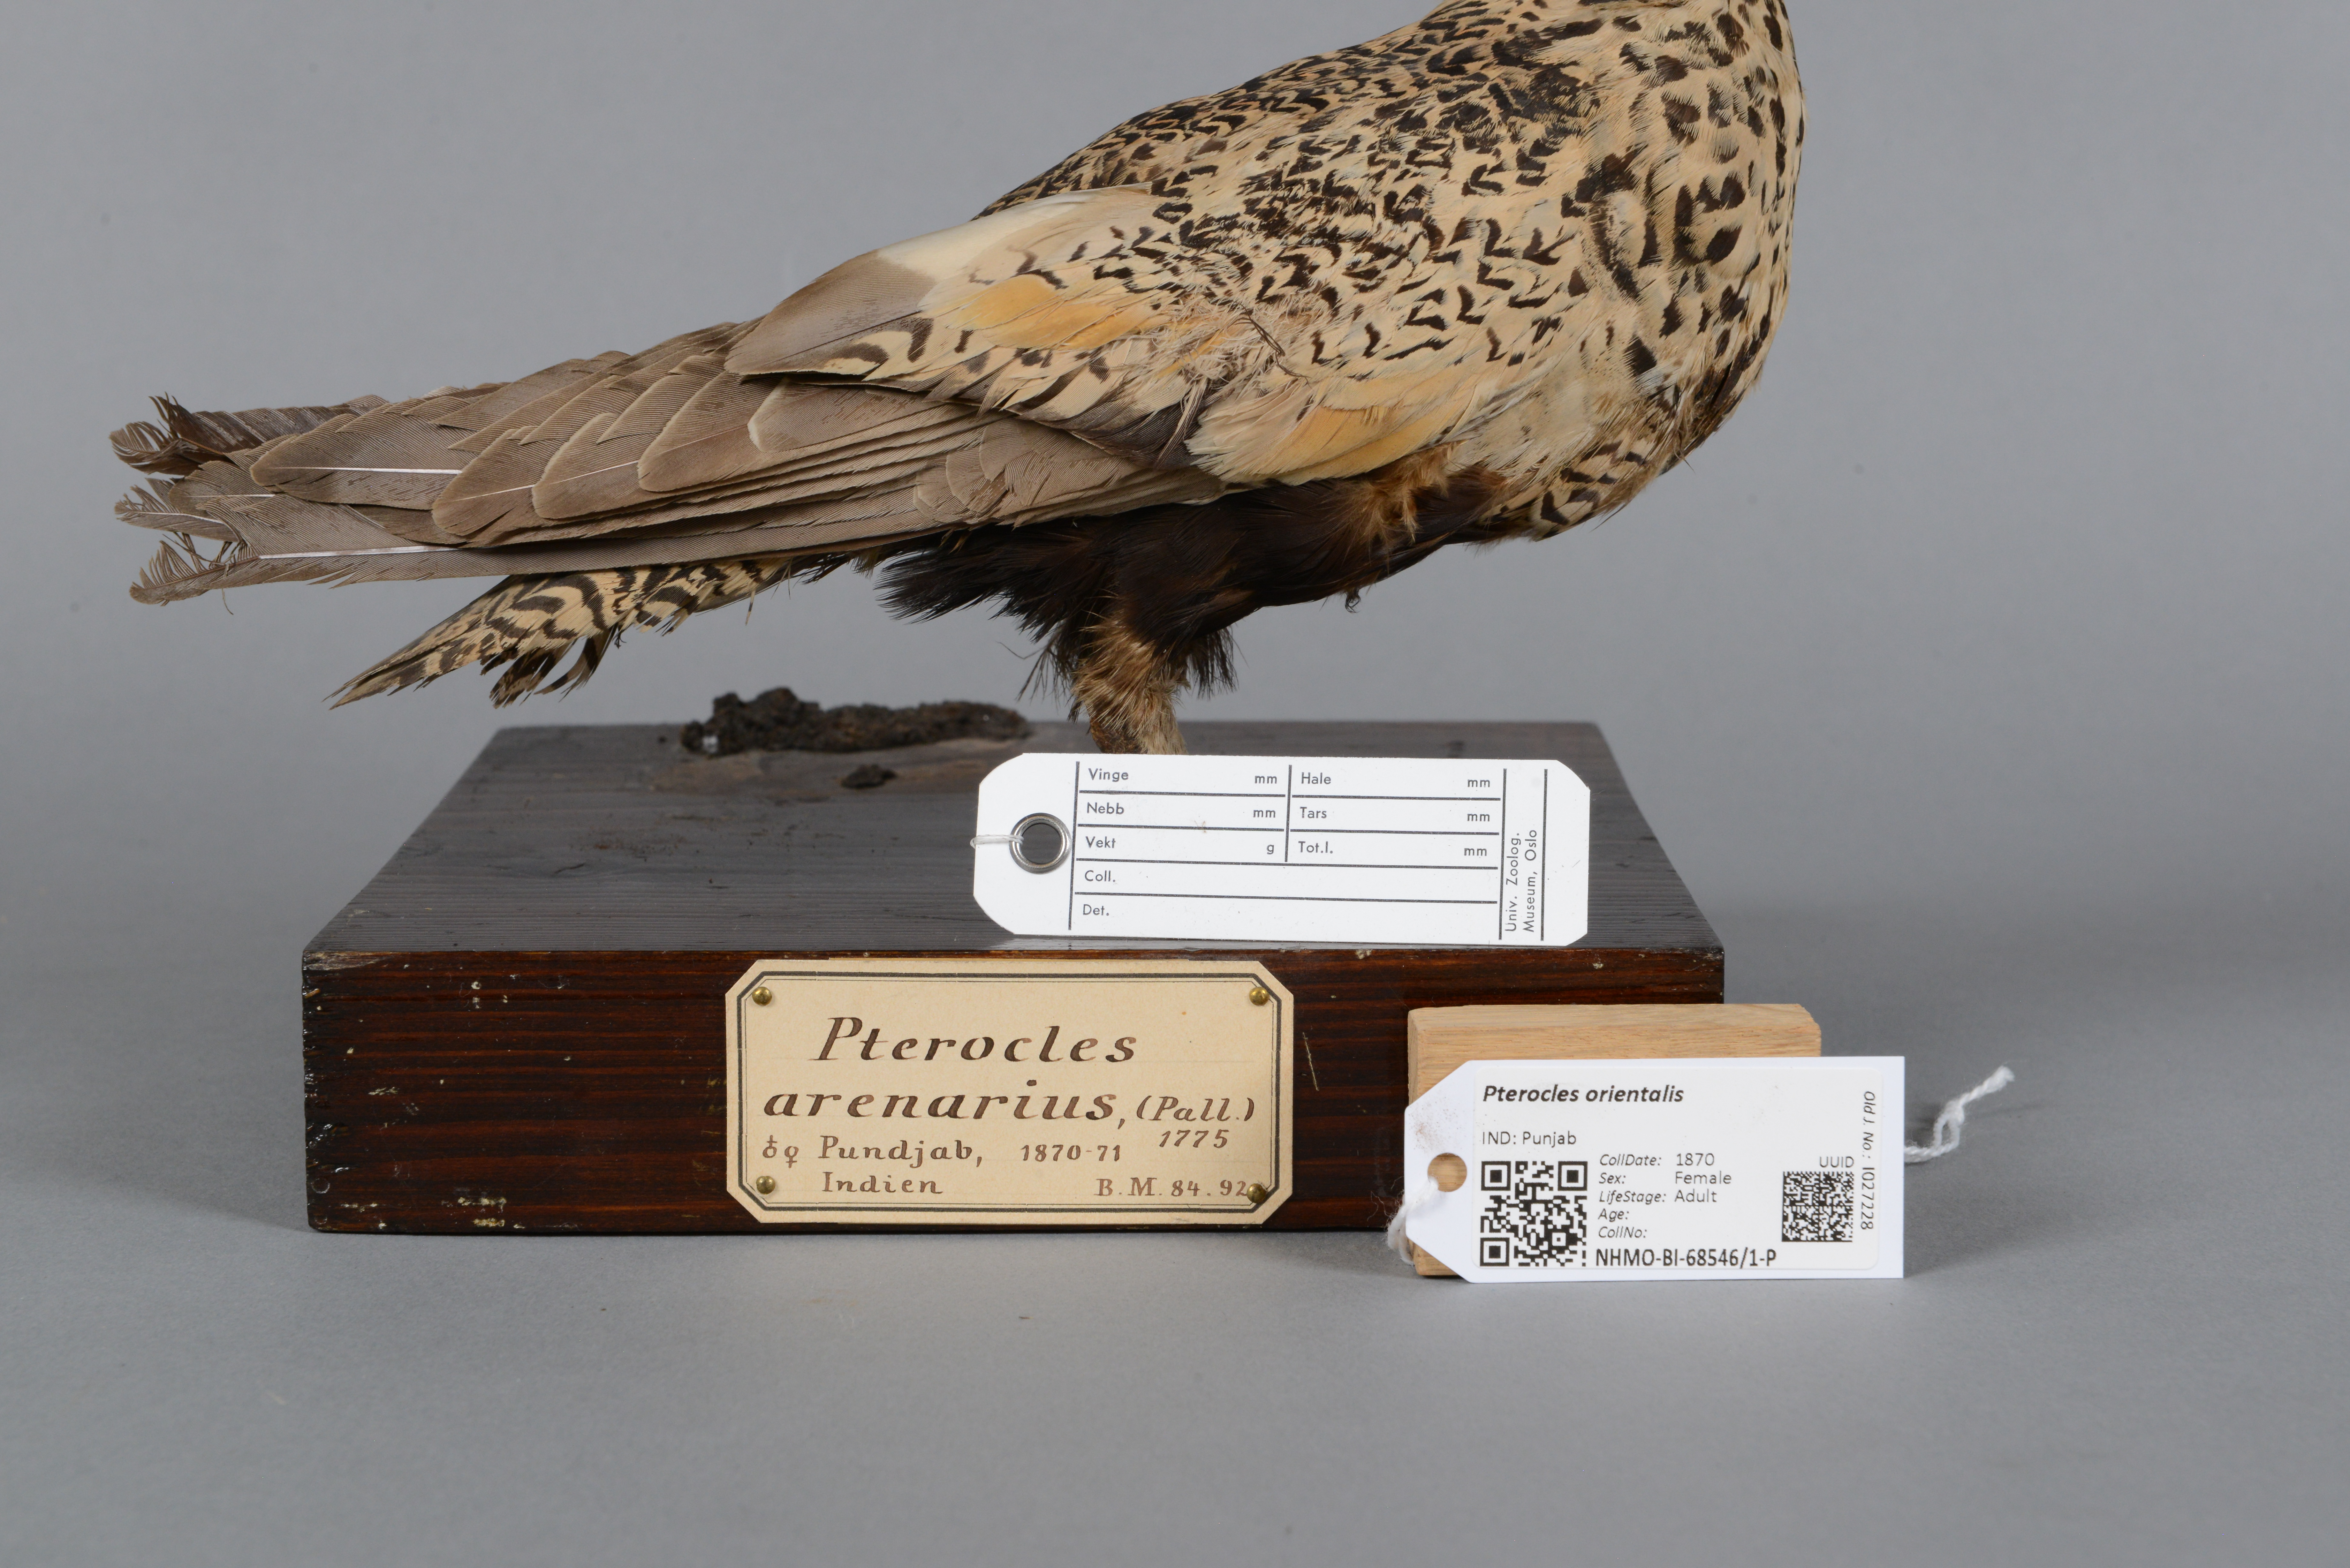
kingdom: Animalia
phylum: Chordata
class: Aves
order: Pteroclidiformes
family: Pteroclididae
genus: Pterocles
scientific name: Pterocles orientalis
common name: Black-bellied sandgrouse
